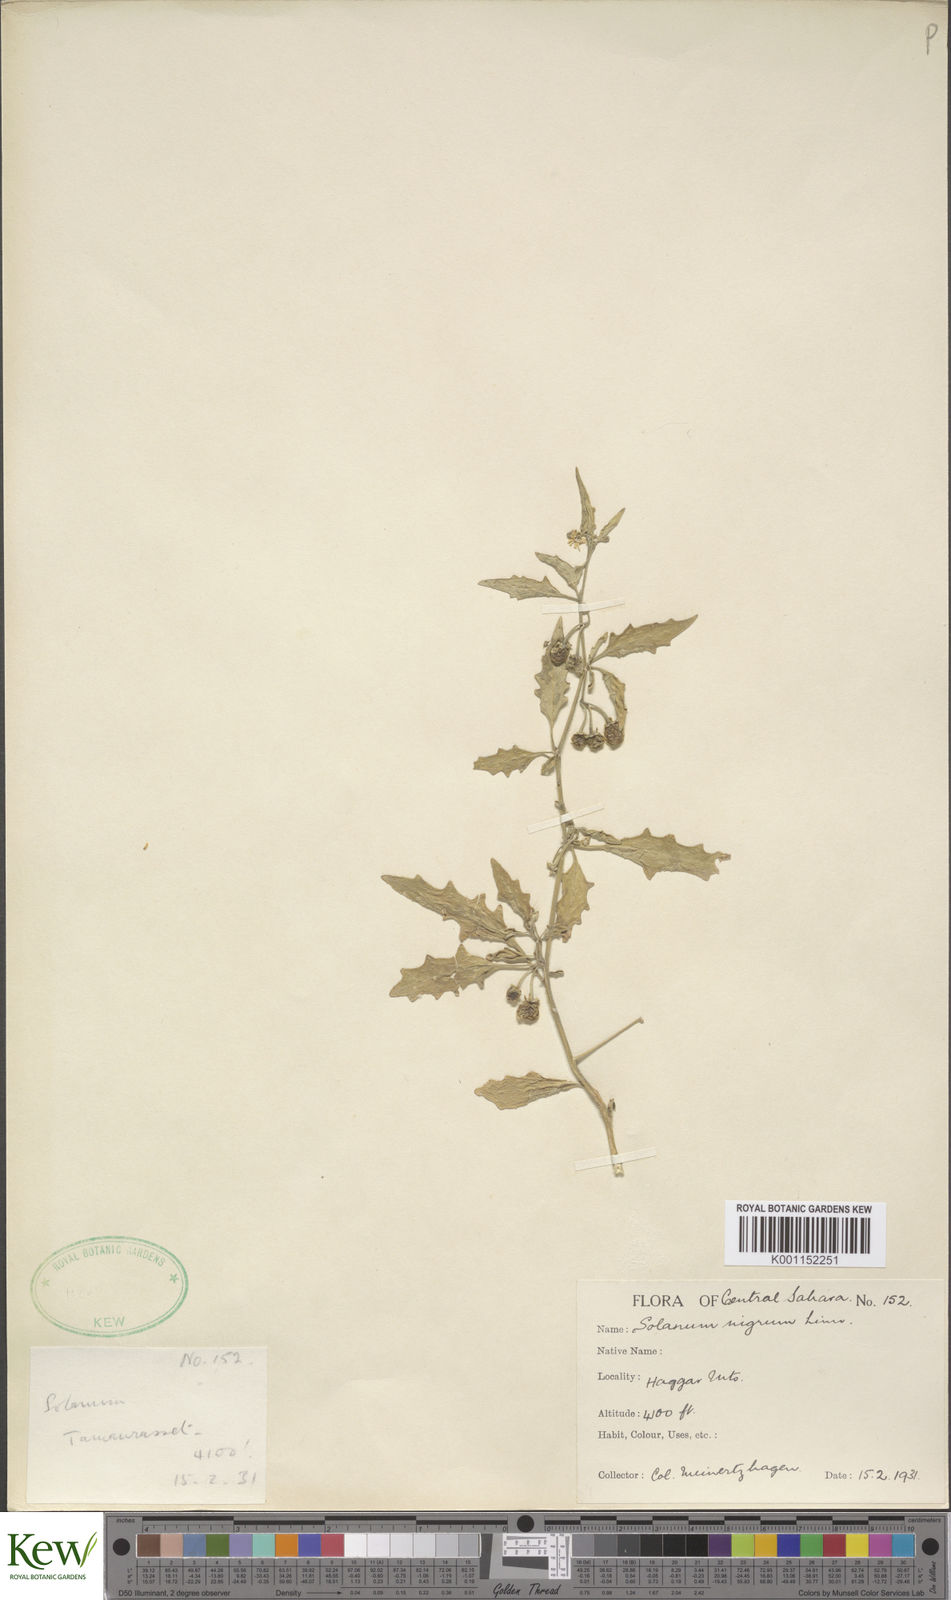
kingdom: Plantae
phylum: Tracheophyta
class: Magnoliopsida
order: Solanales
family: Solanaceae
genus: Solanum
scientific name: Solanum villosum
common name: Red nightshade
